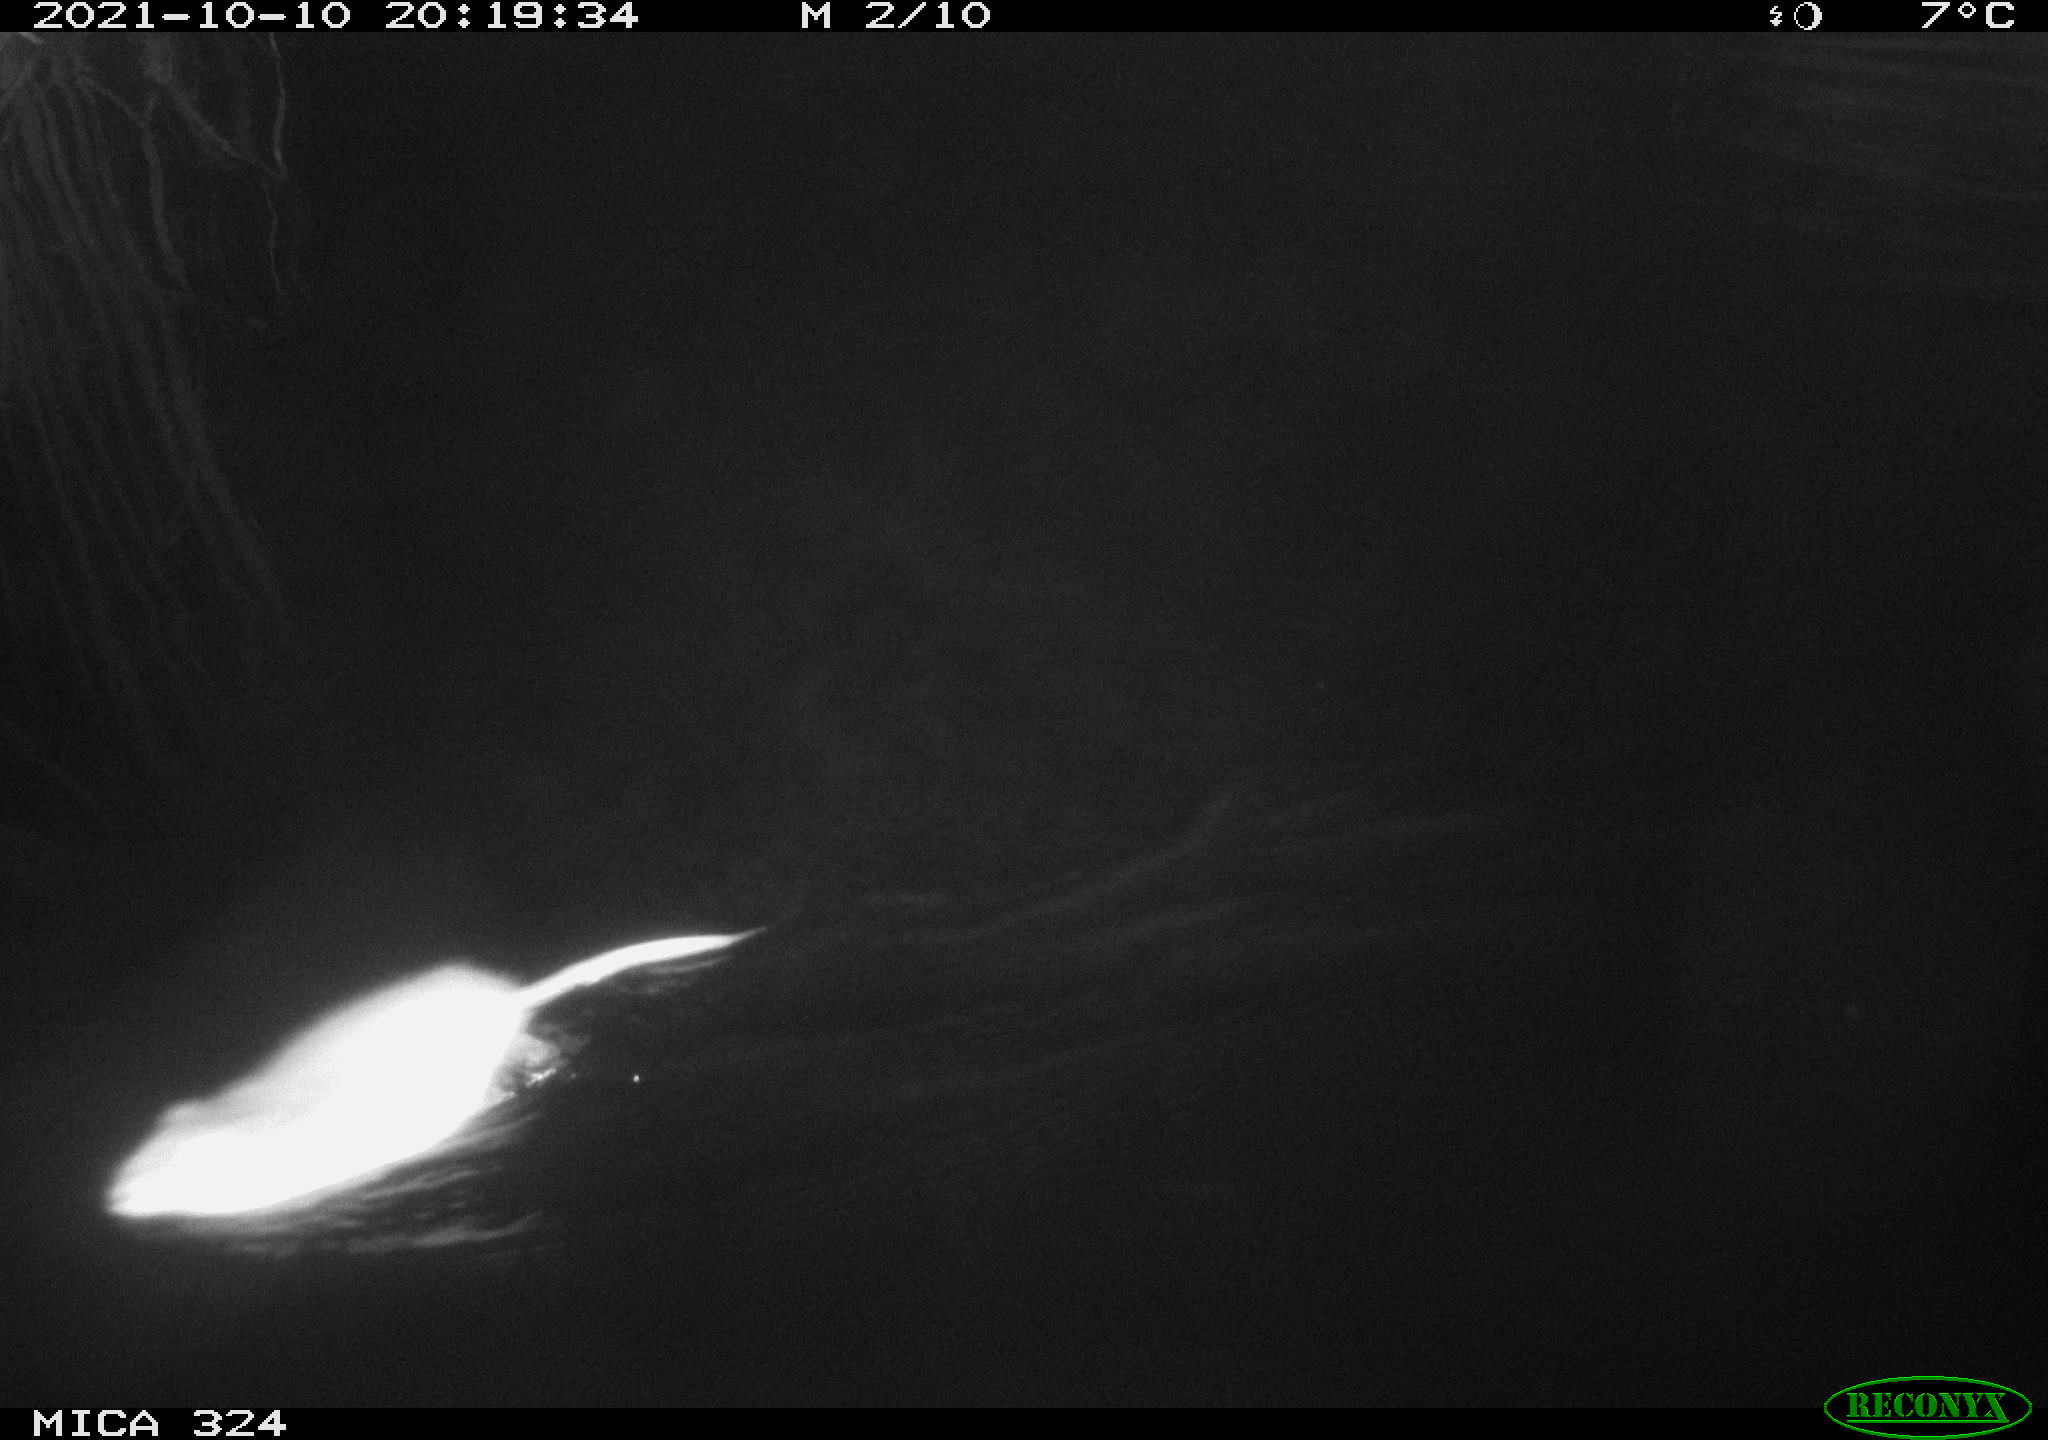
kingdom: Animalia
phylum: Chordata
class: Mammalia
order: Rodentia
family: Cricetidae
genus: Ondatra
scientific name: Ondatra zibethicus
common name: Muskrat
